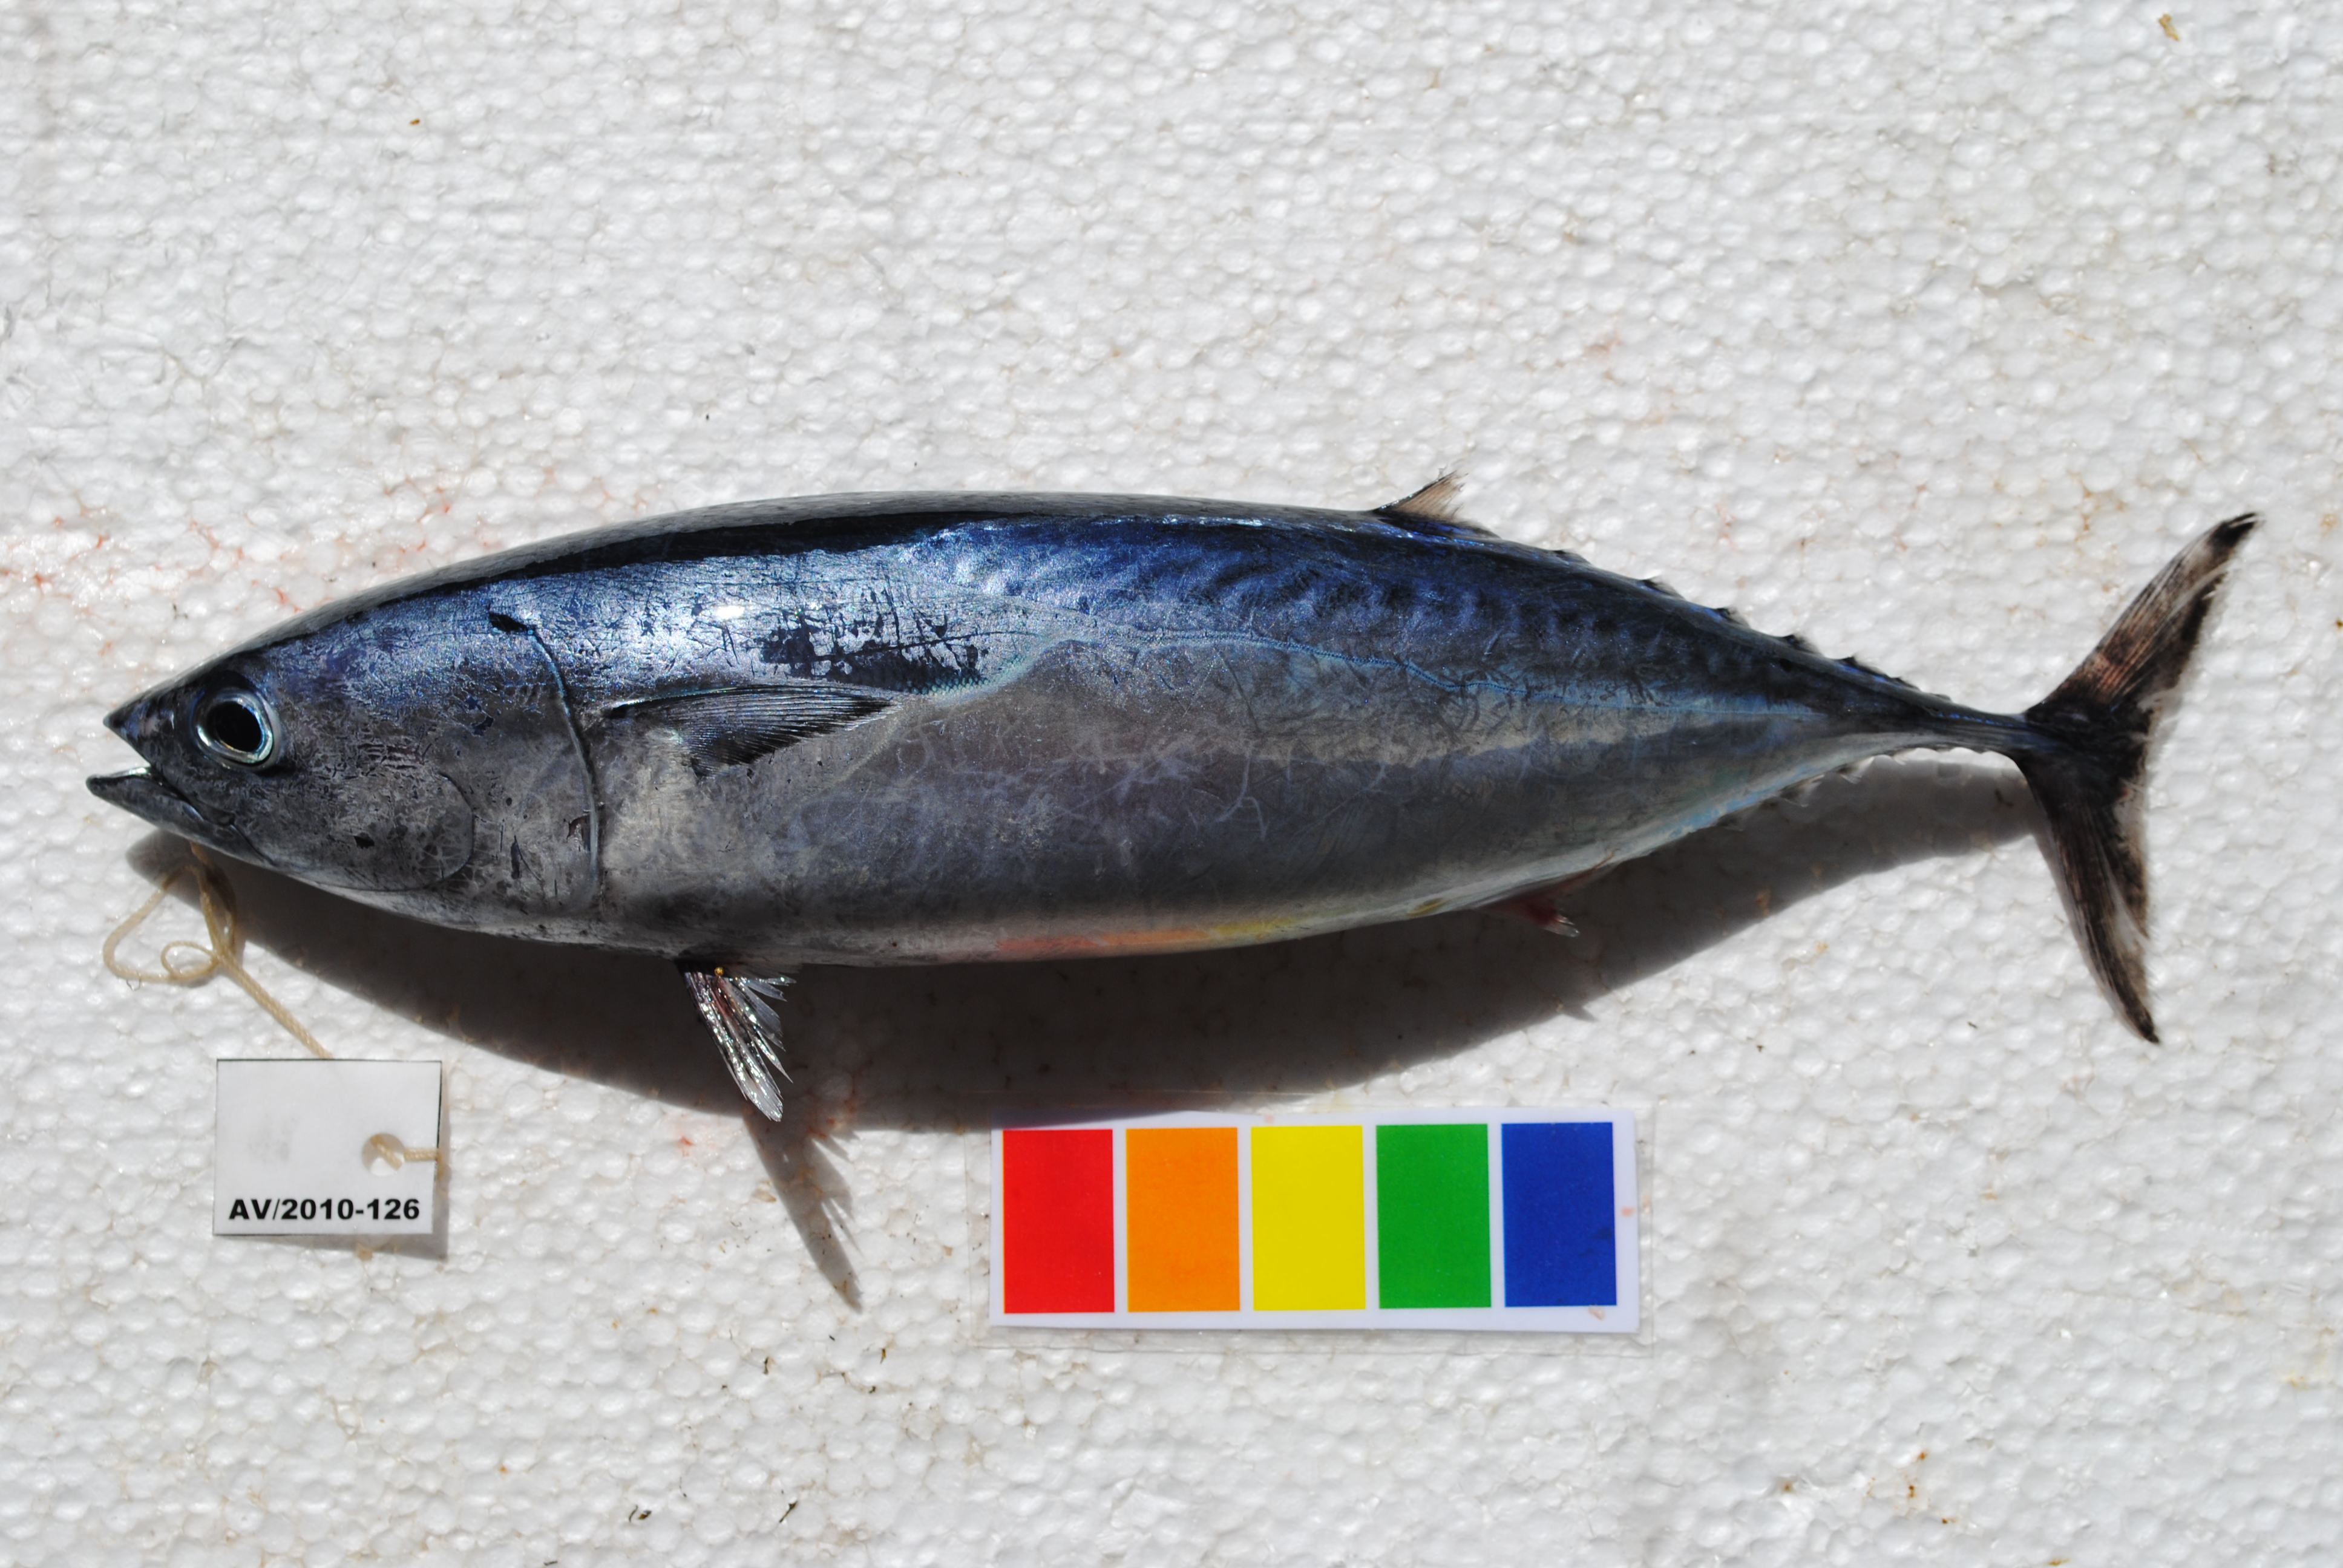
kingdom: Animalia
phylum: Chordata
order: Perciformes
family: Scombridae
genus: Auxis
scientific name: Auxis rochei
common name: Bullet tuna
